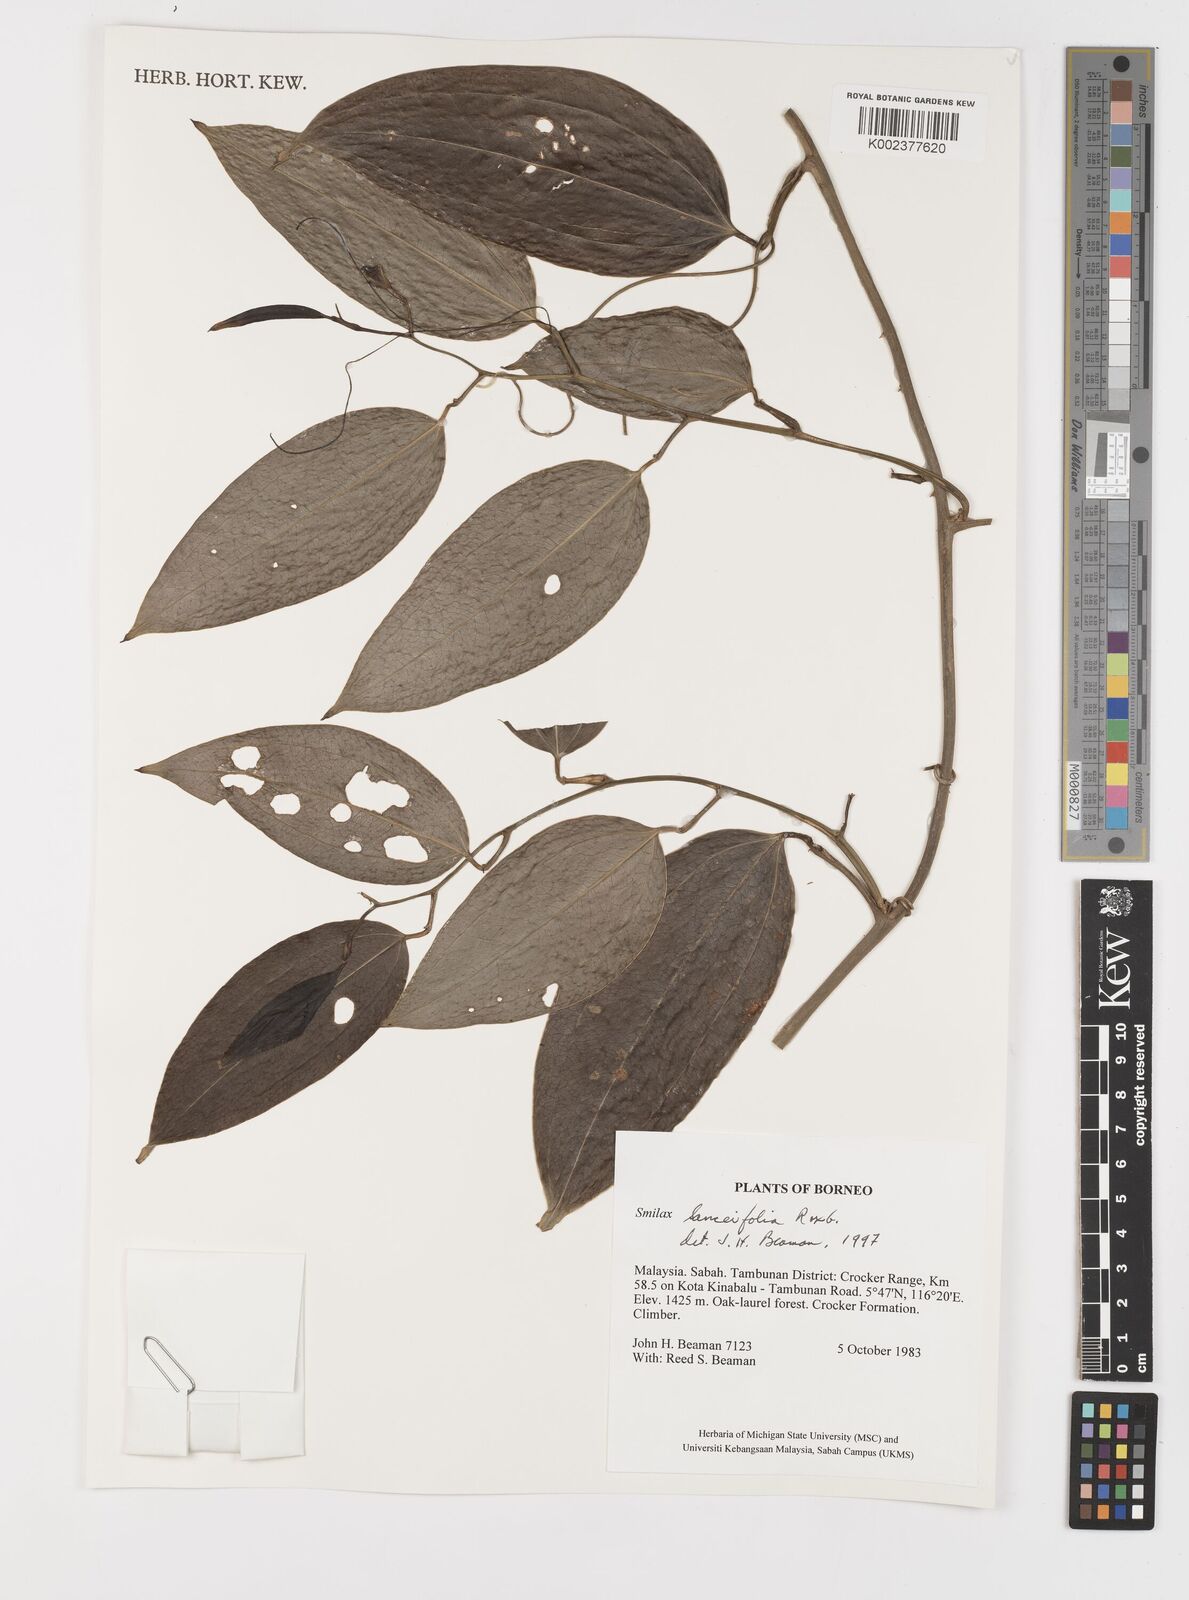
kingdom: Plantae
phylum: Tracheophyta
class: Liliopsida
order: Liliales
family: Smilacaceae
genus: Smilax
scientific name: Smilax lanceifolia
